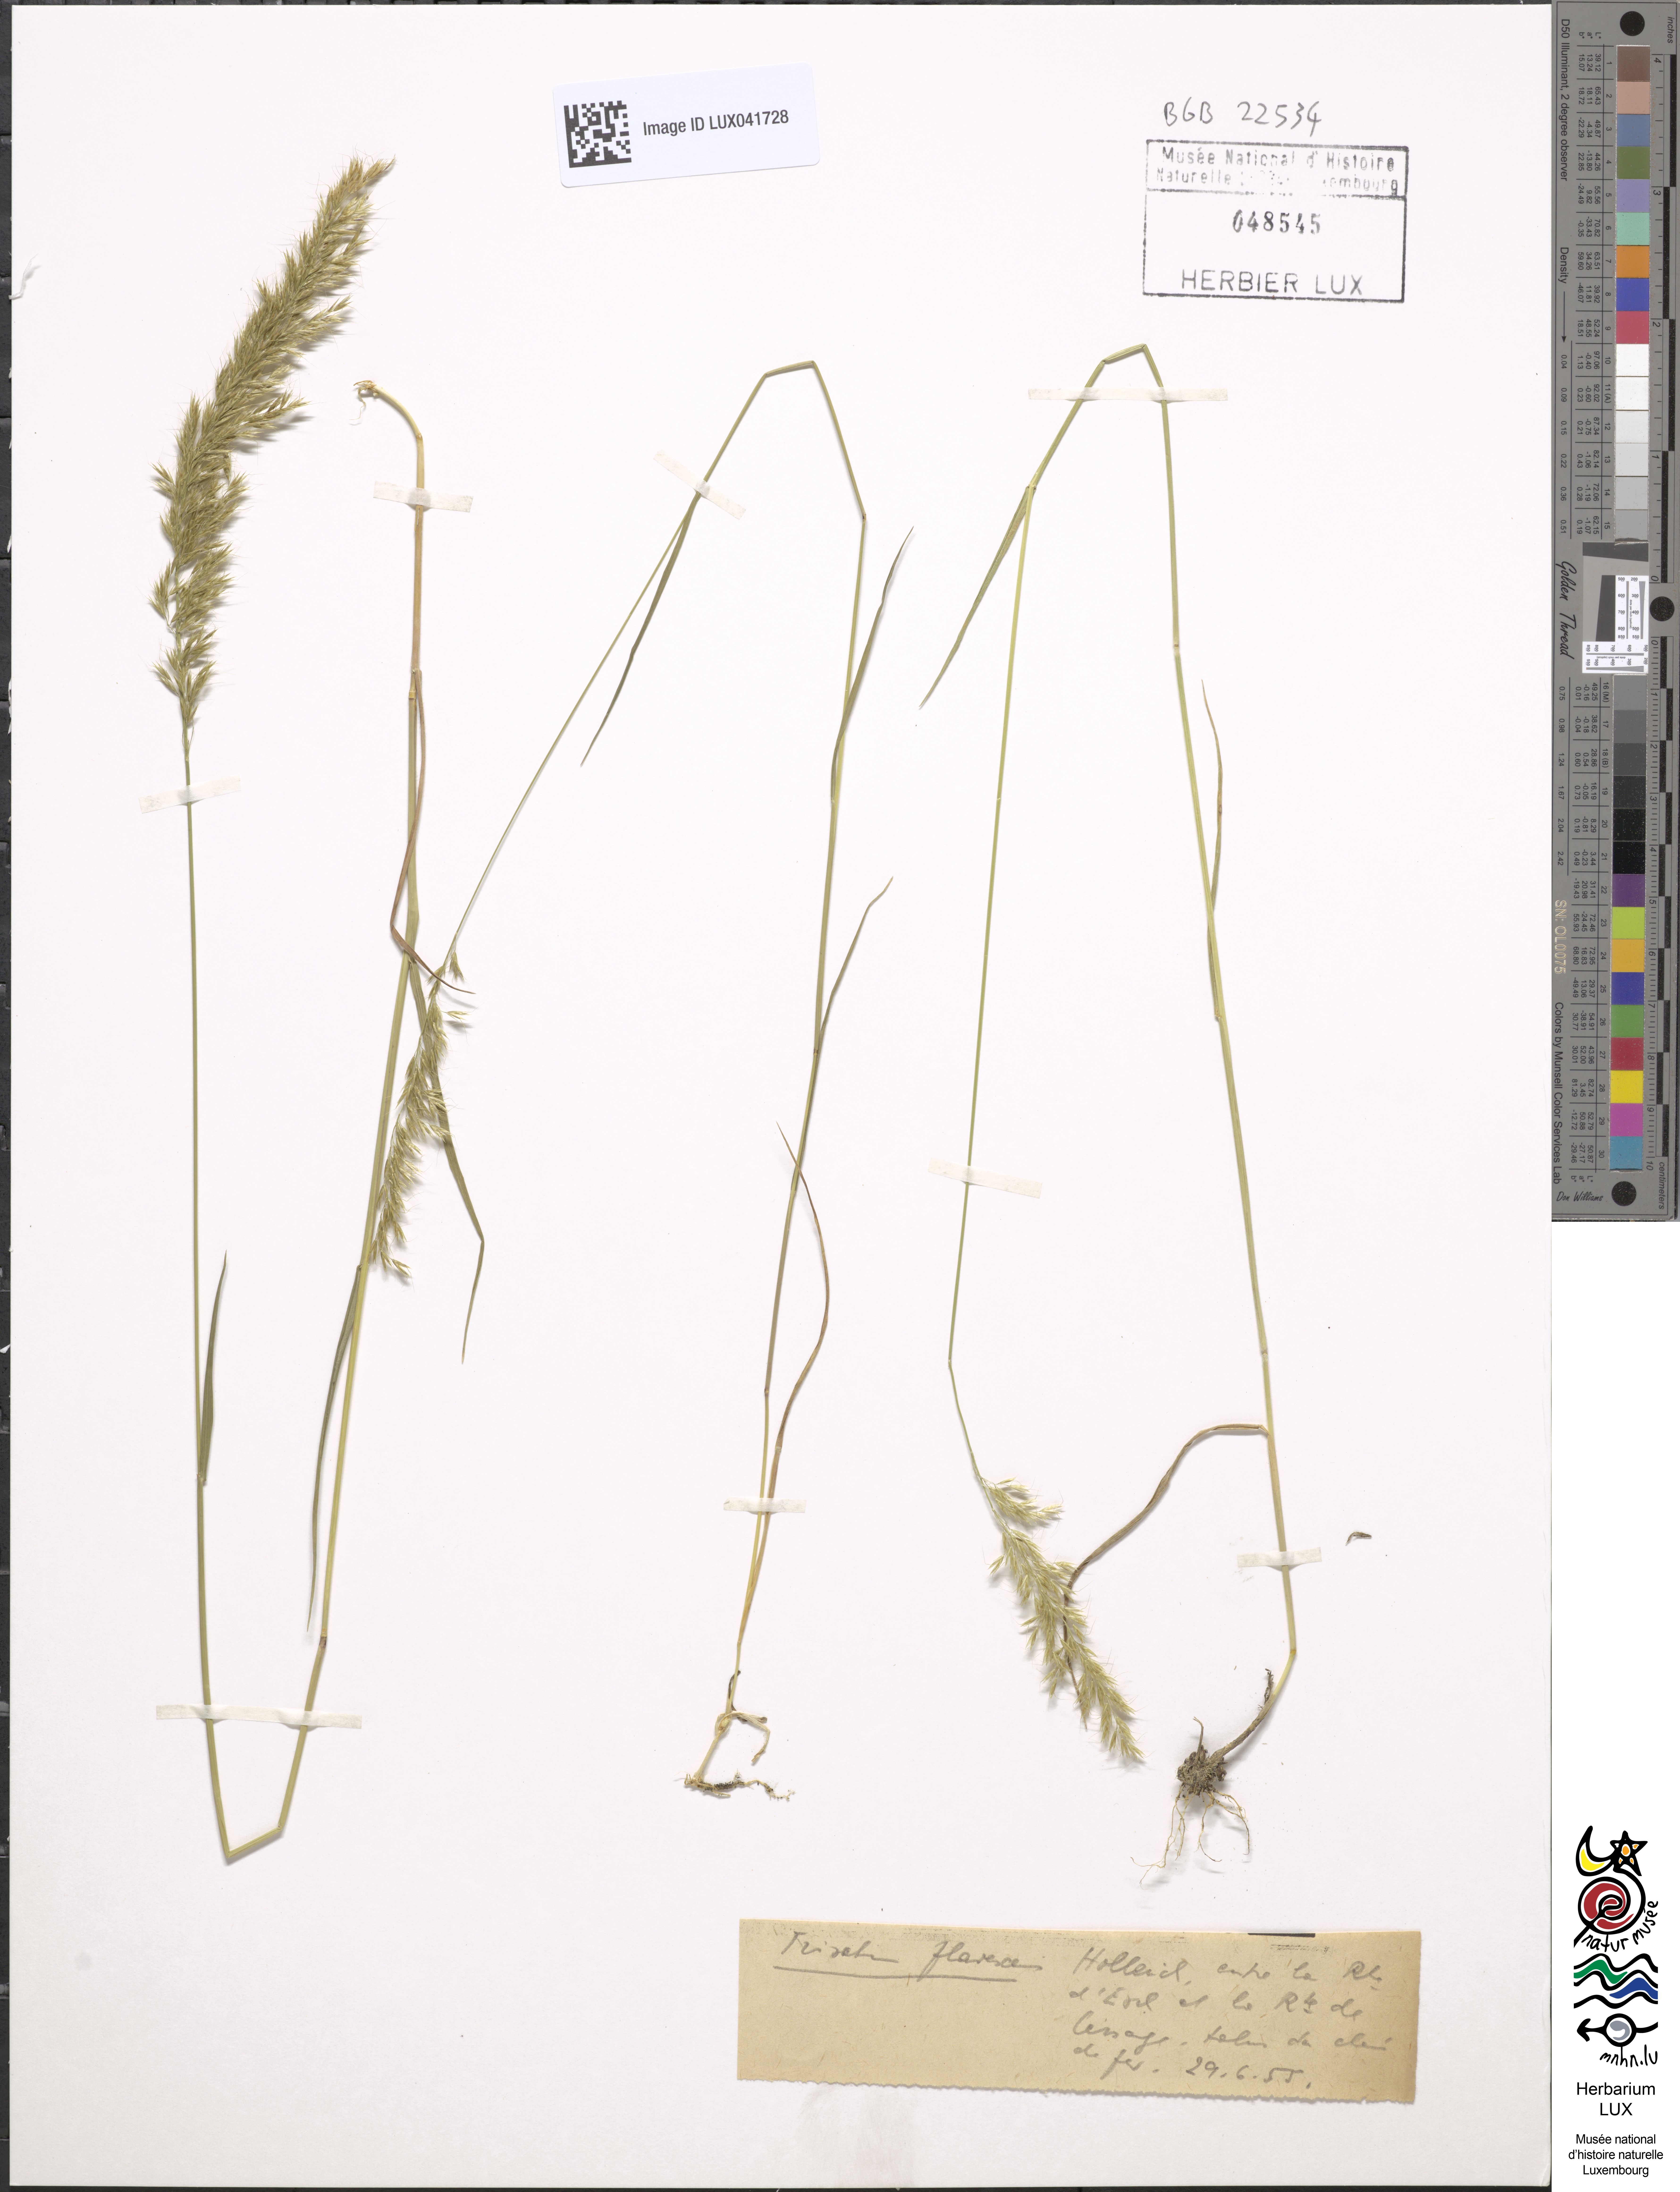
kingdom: Plantae
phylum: Tracheophyta
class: Liliopsida
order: Poales
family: Poaceae
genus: Trisetum
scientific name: Trisetum flavescens
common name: Yellow oat-grass
